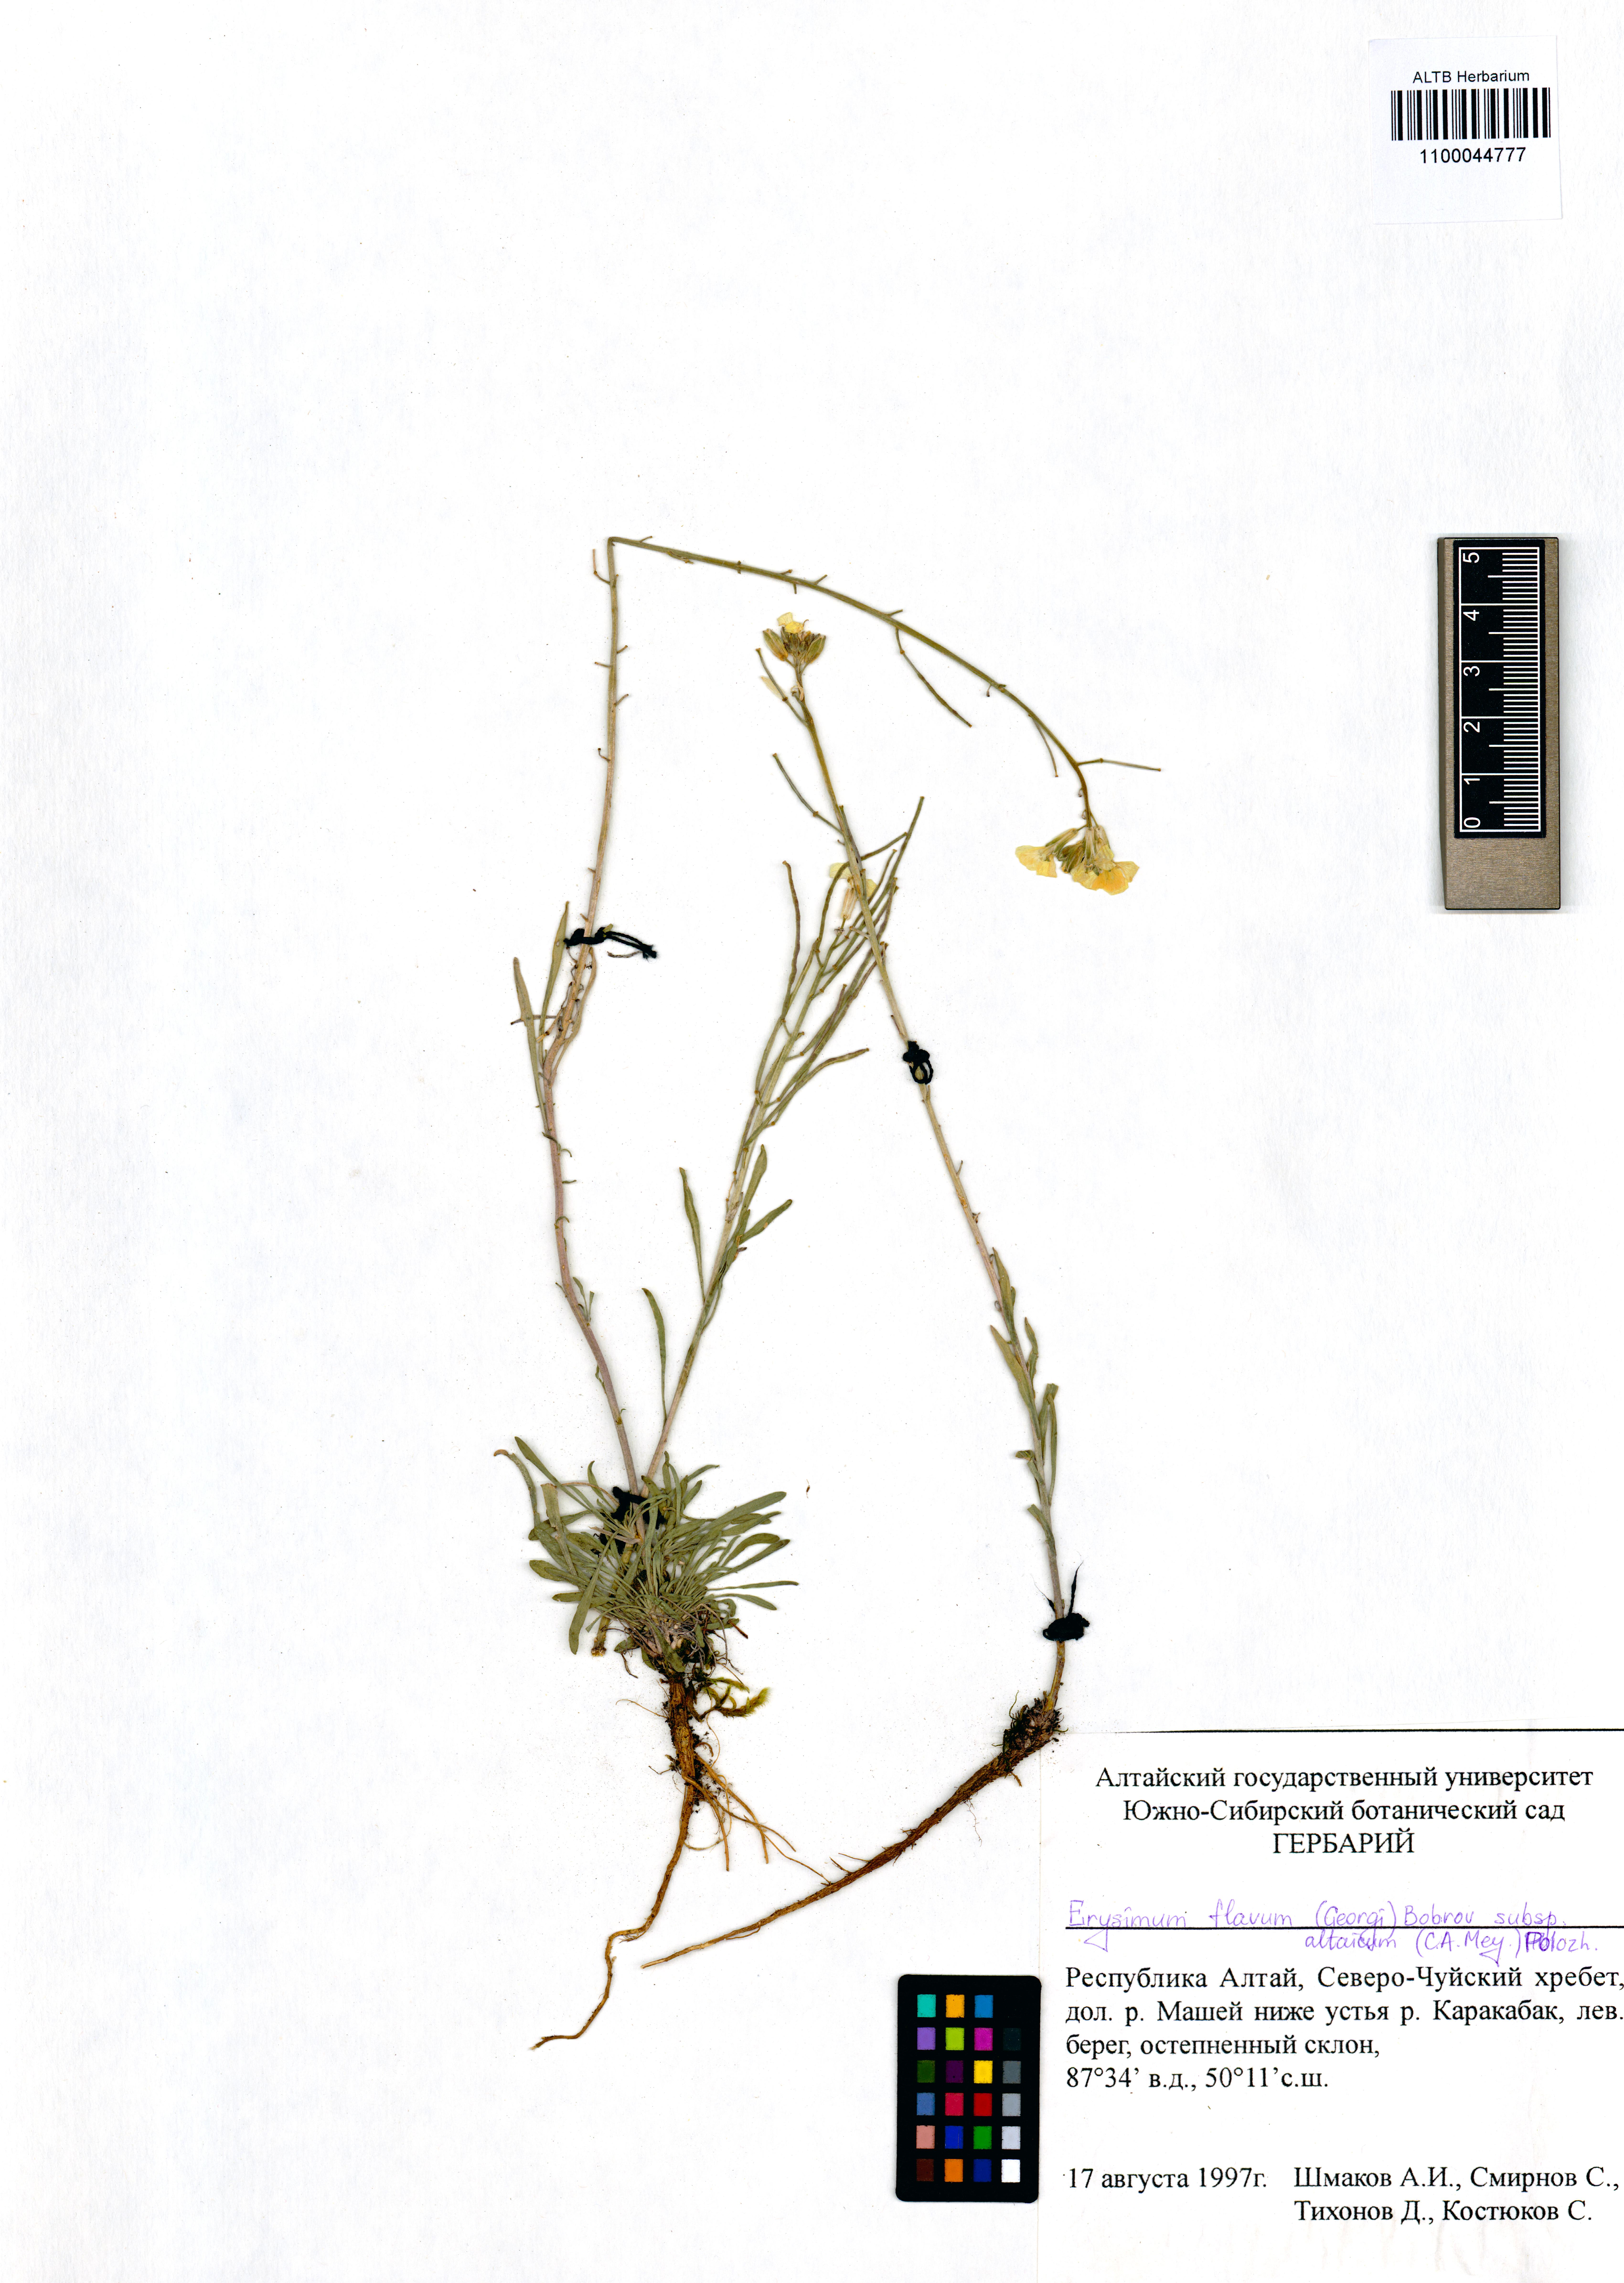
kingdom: Plantae
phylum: Tracheophyta
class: Magnoliopsida
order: Brassicales
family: Brassicaceae
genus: Erysimum
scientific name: Erysimum flavum
